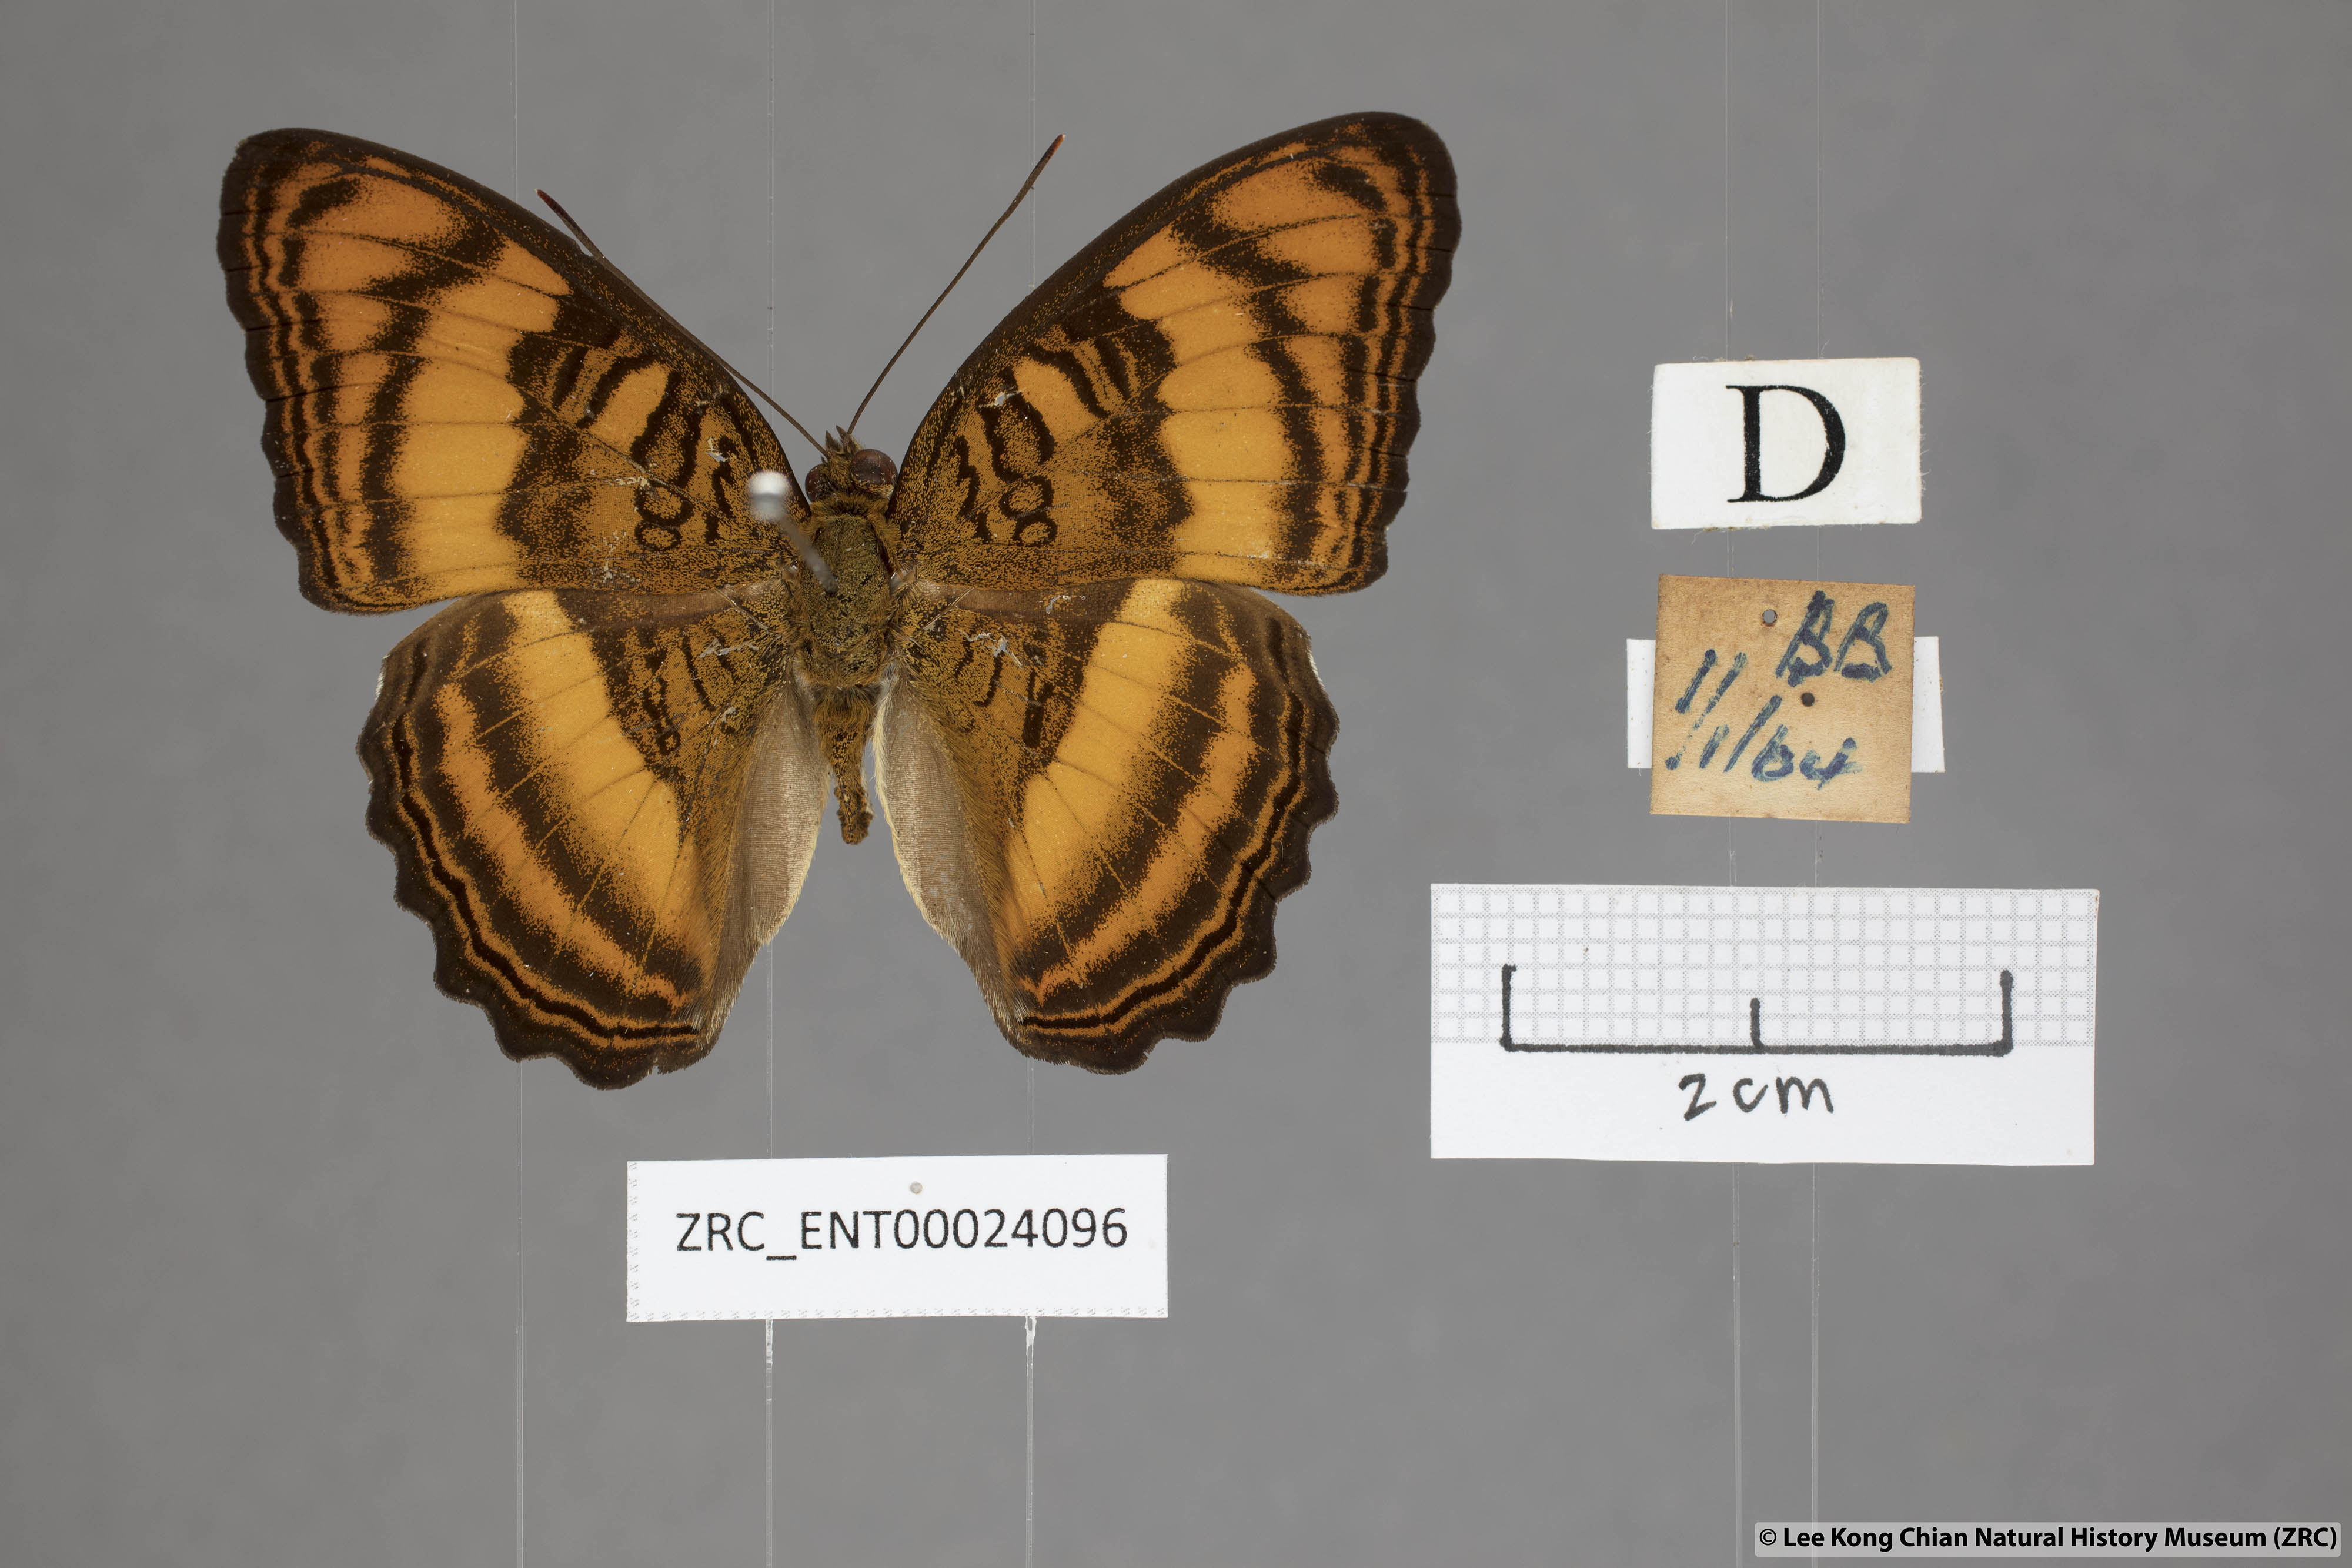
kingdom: Animalia
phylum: Arthropoda
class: Insecta
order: Lepidoptera
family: Nymphalidae
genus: Pandita
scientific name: Pandita sinope
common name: Colonel
